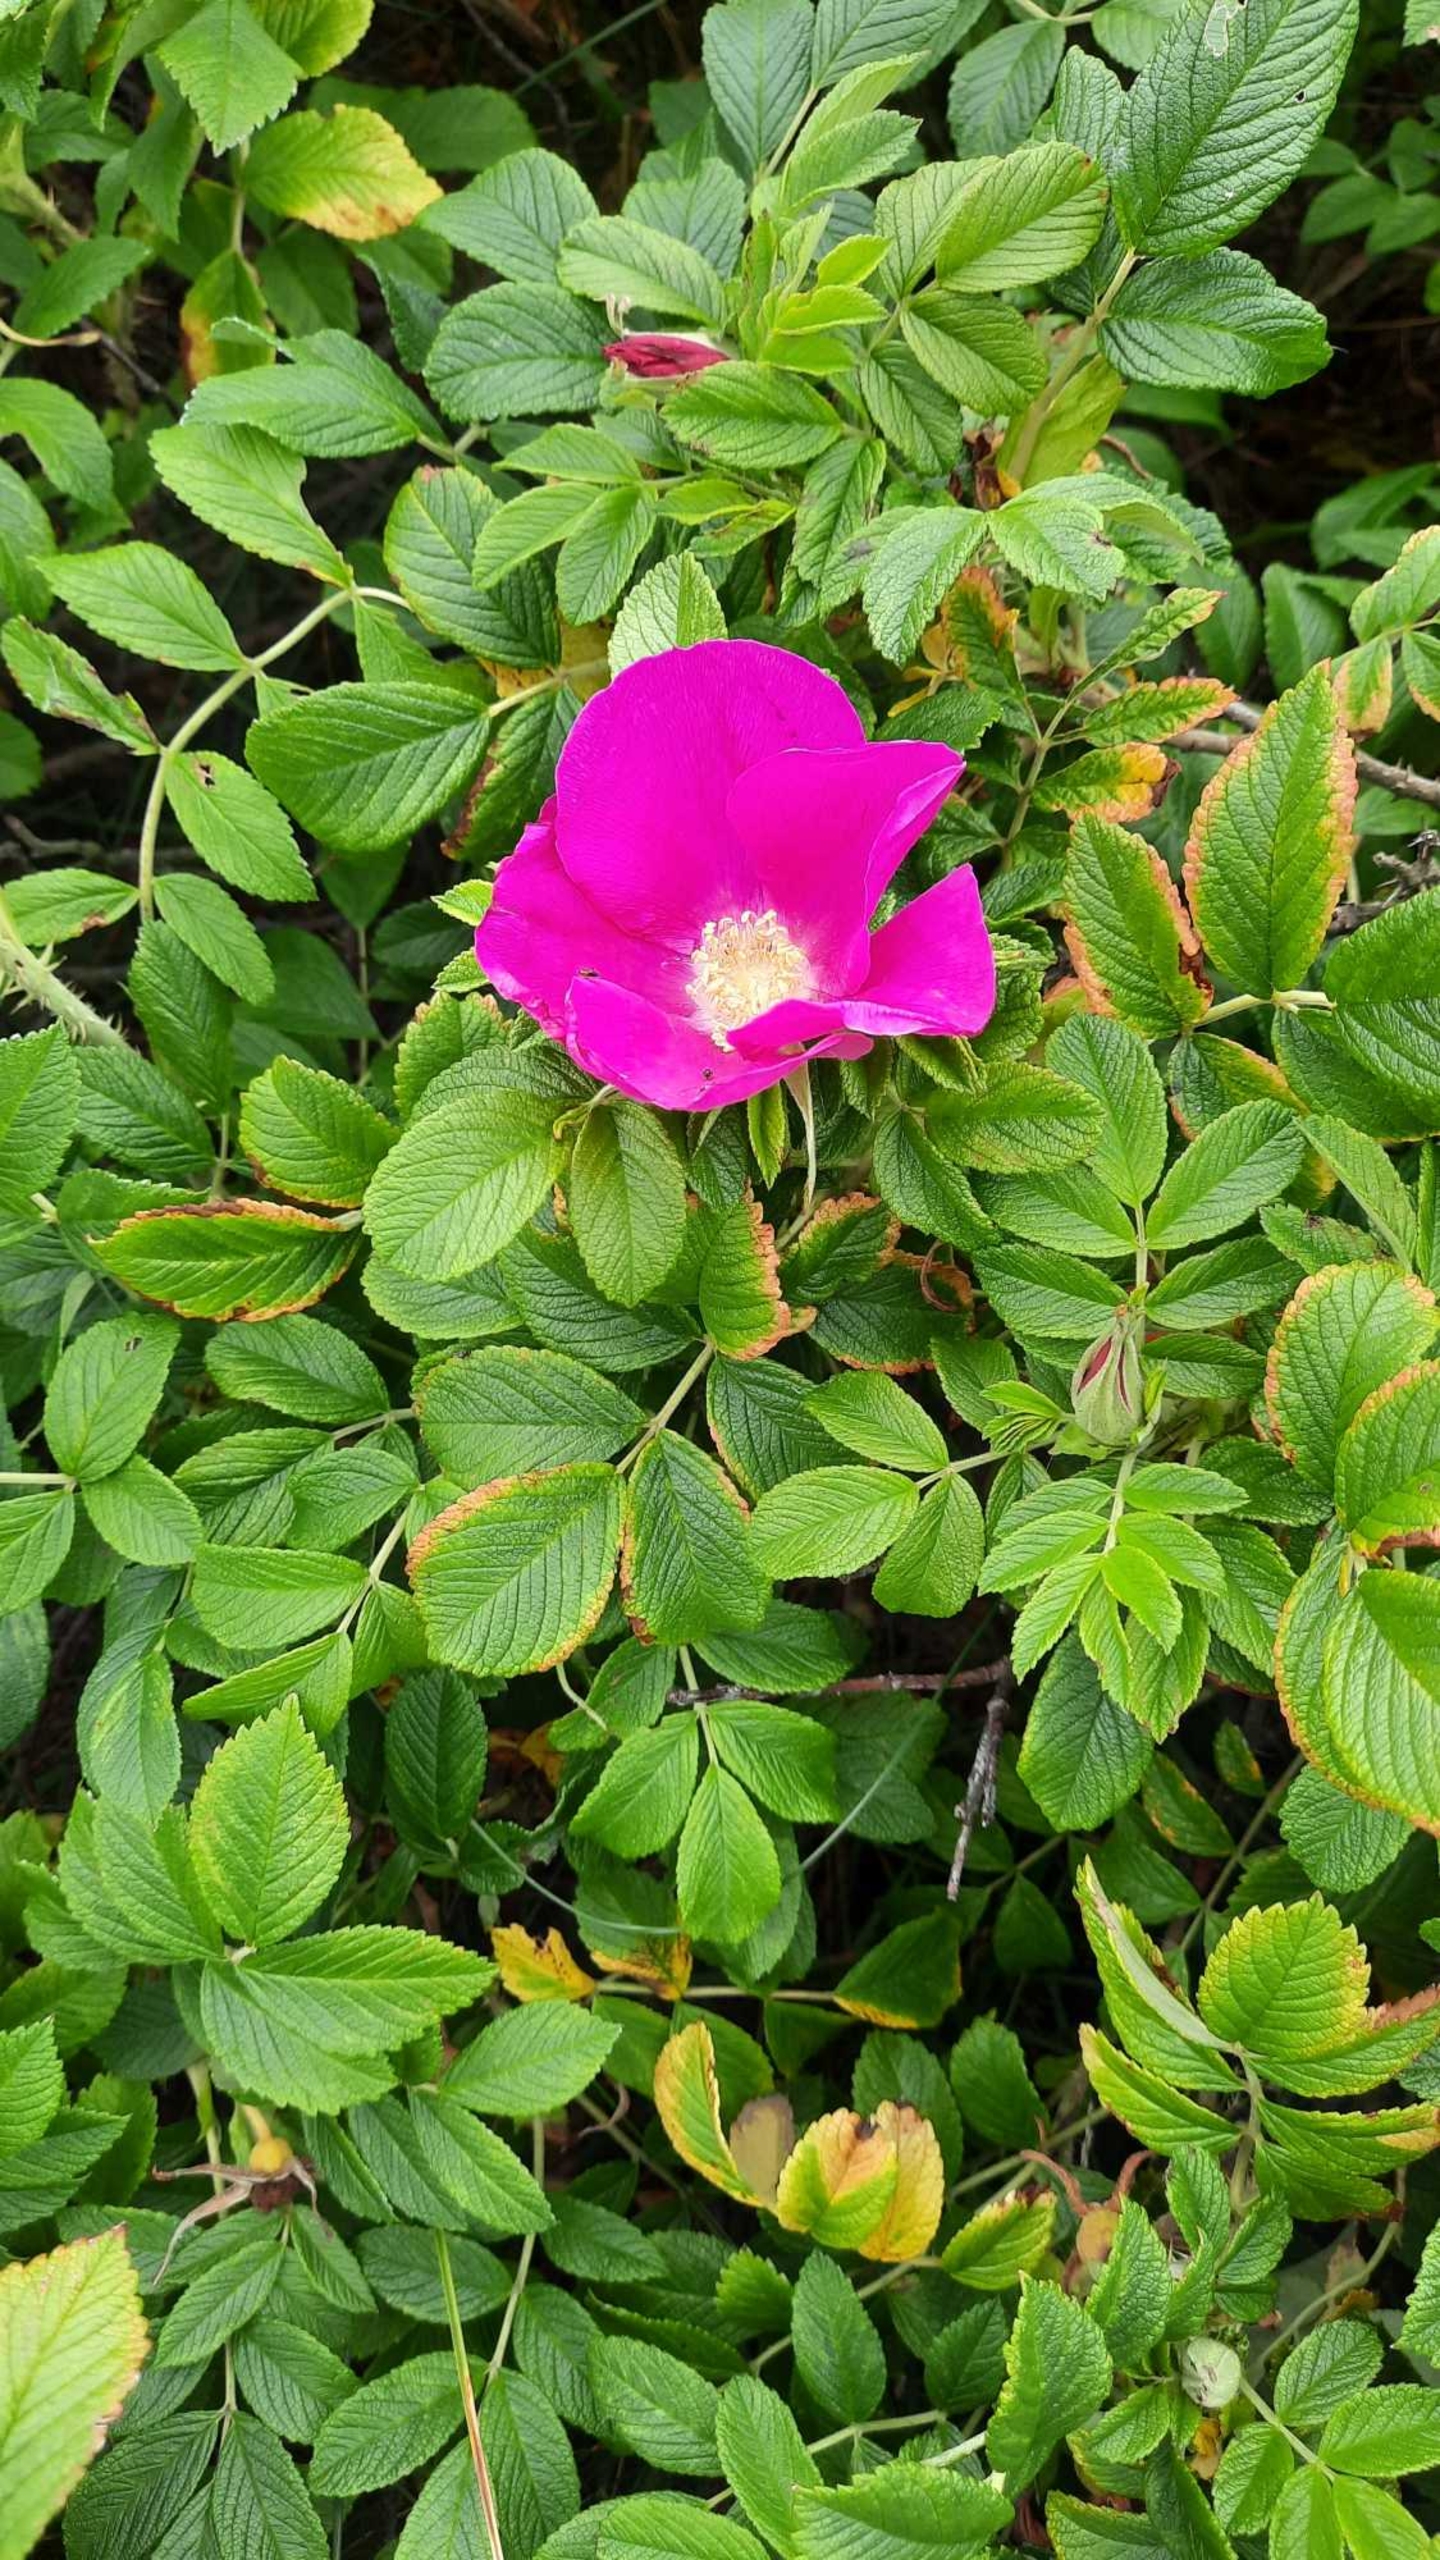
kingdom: Plantae
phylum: Tracheophyta
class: Magnoliopsida
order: Rosales
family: Rosaceae
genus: Rosa
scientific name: Rosa rugosa
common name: Rynket rose
